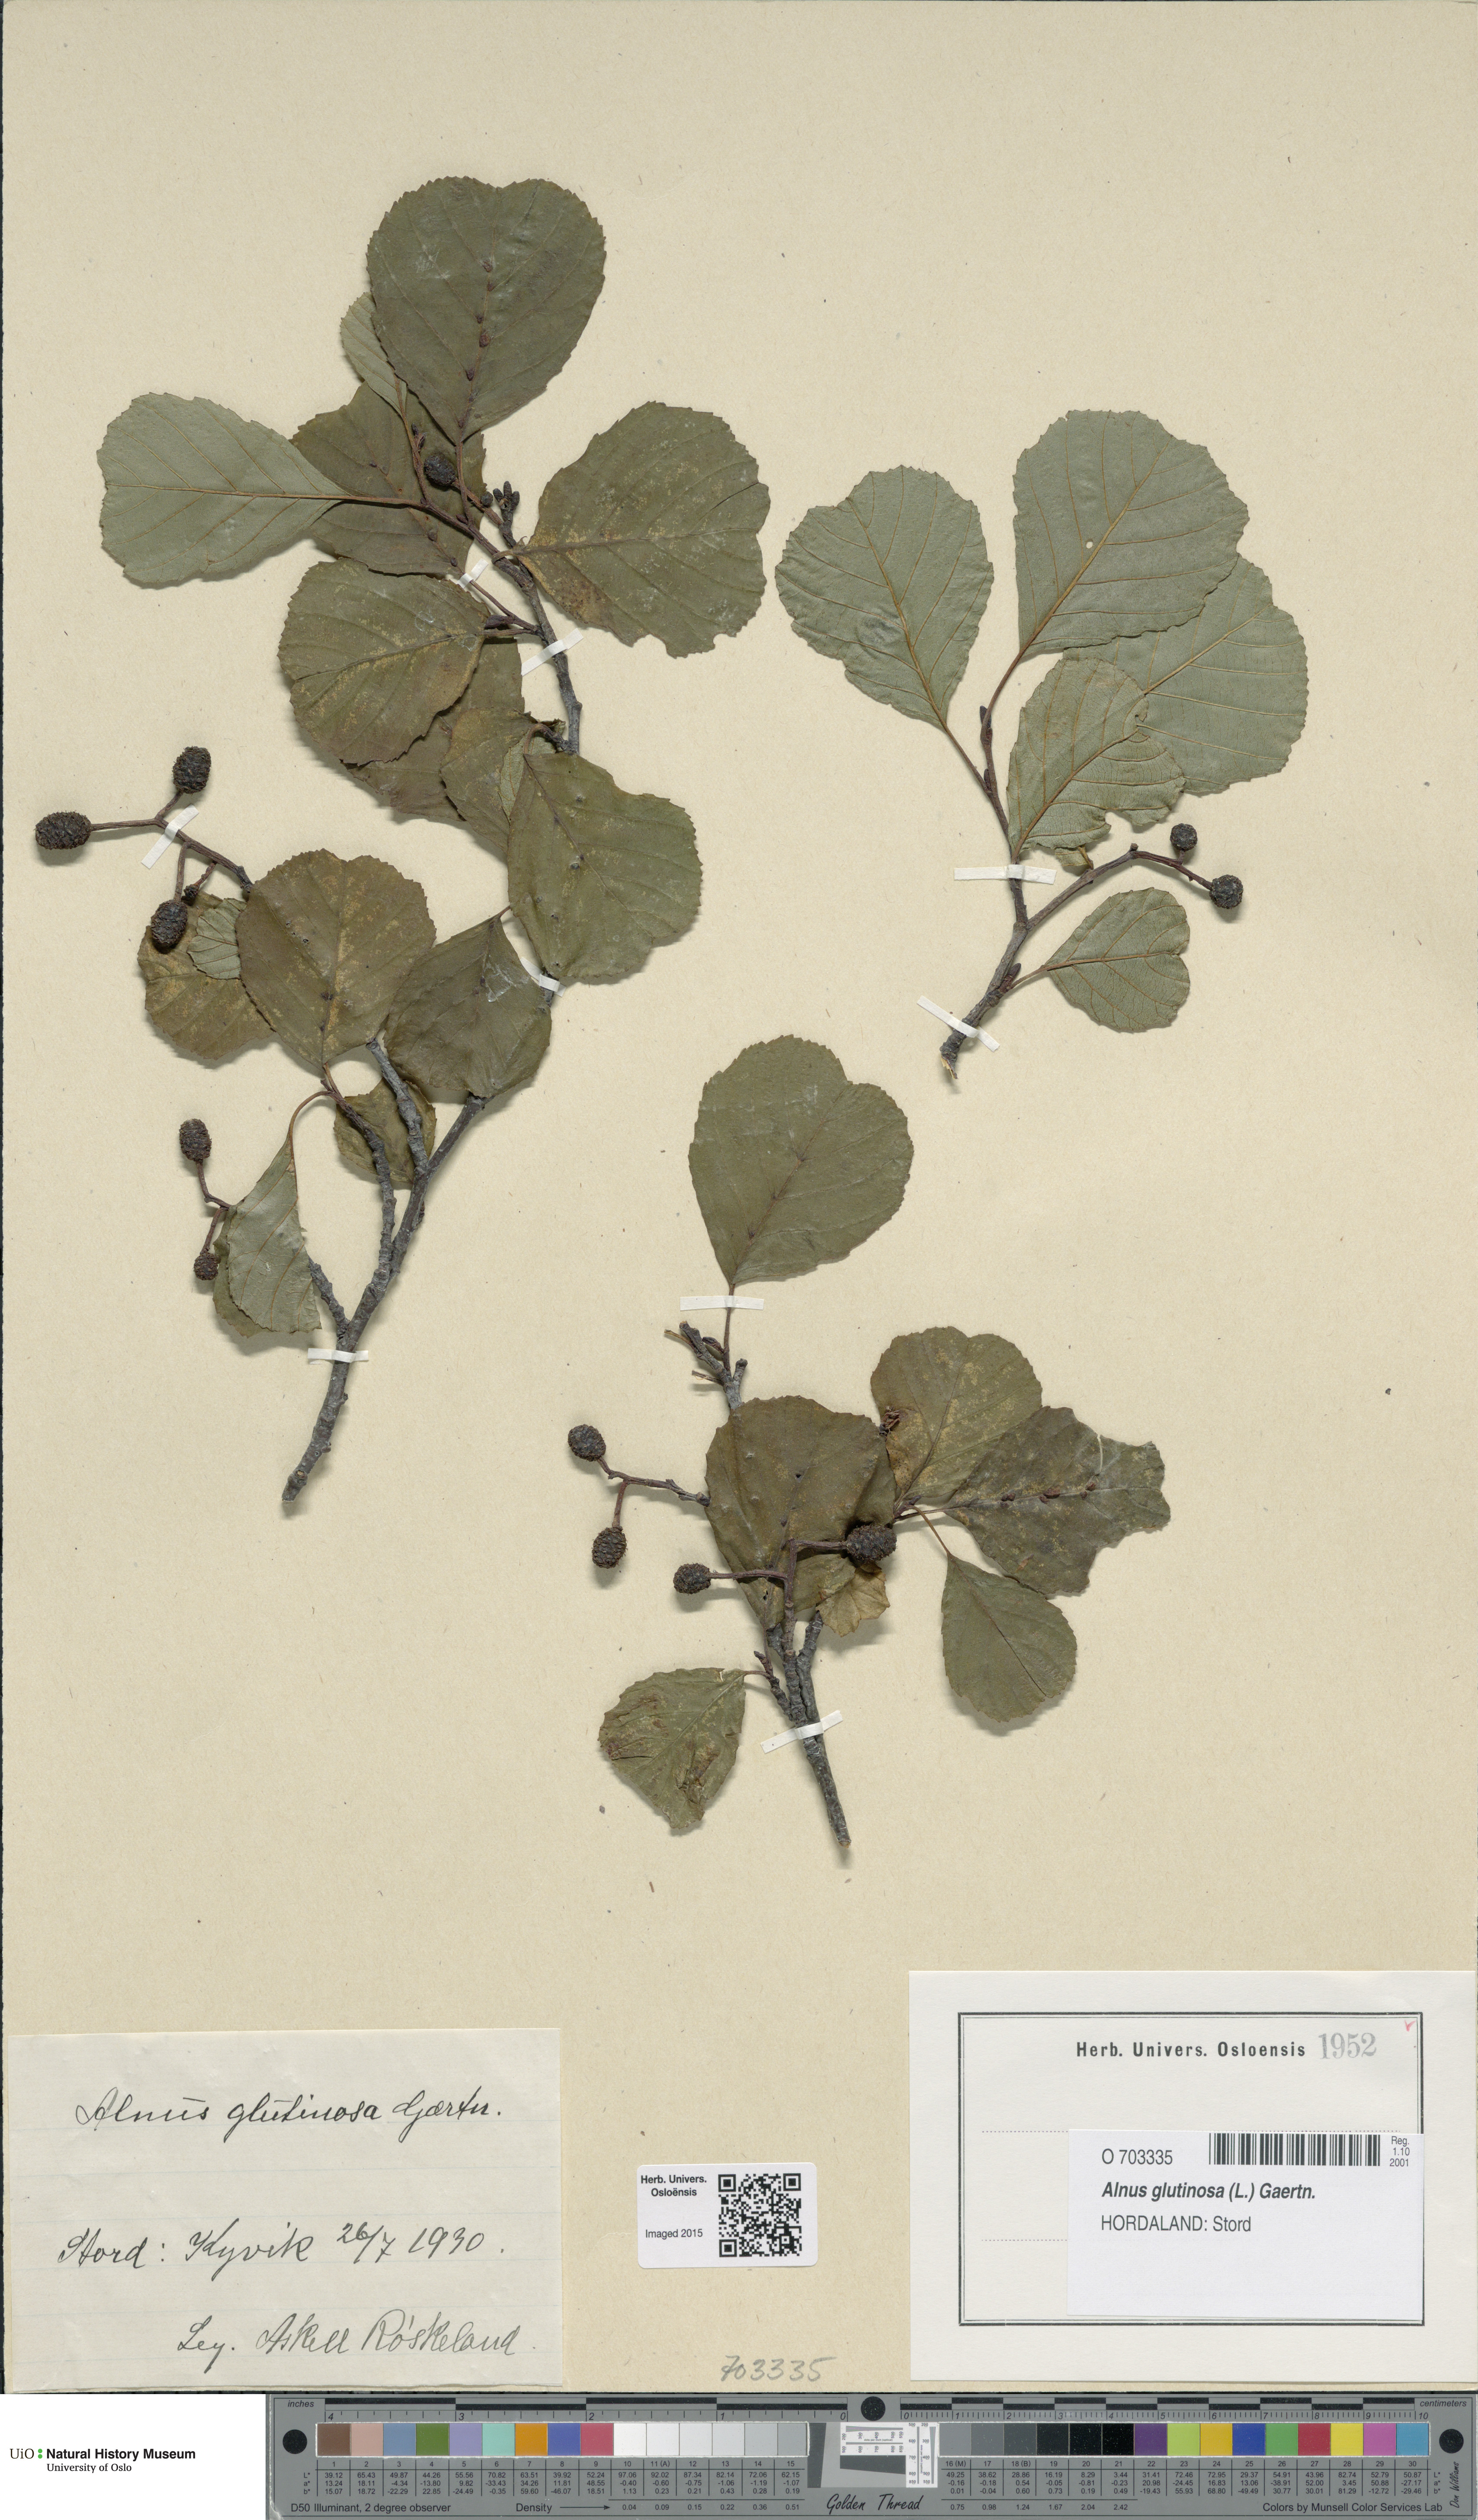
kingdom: Plantae
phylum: Tracheophyta
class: Magnoliopsida
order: Fagales
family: Betulaceae
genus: Alnus
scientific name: Alnus glutinosa
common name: Black alder
